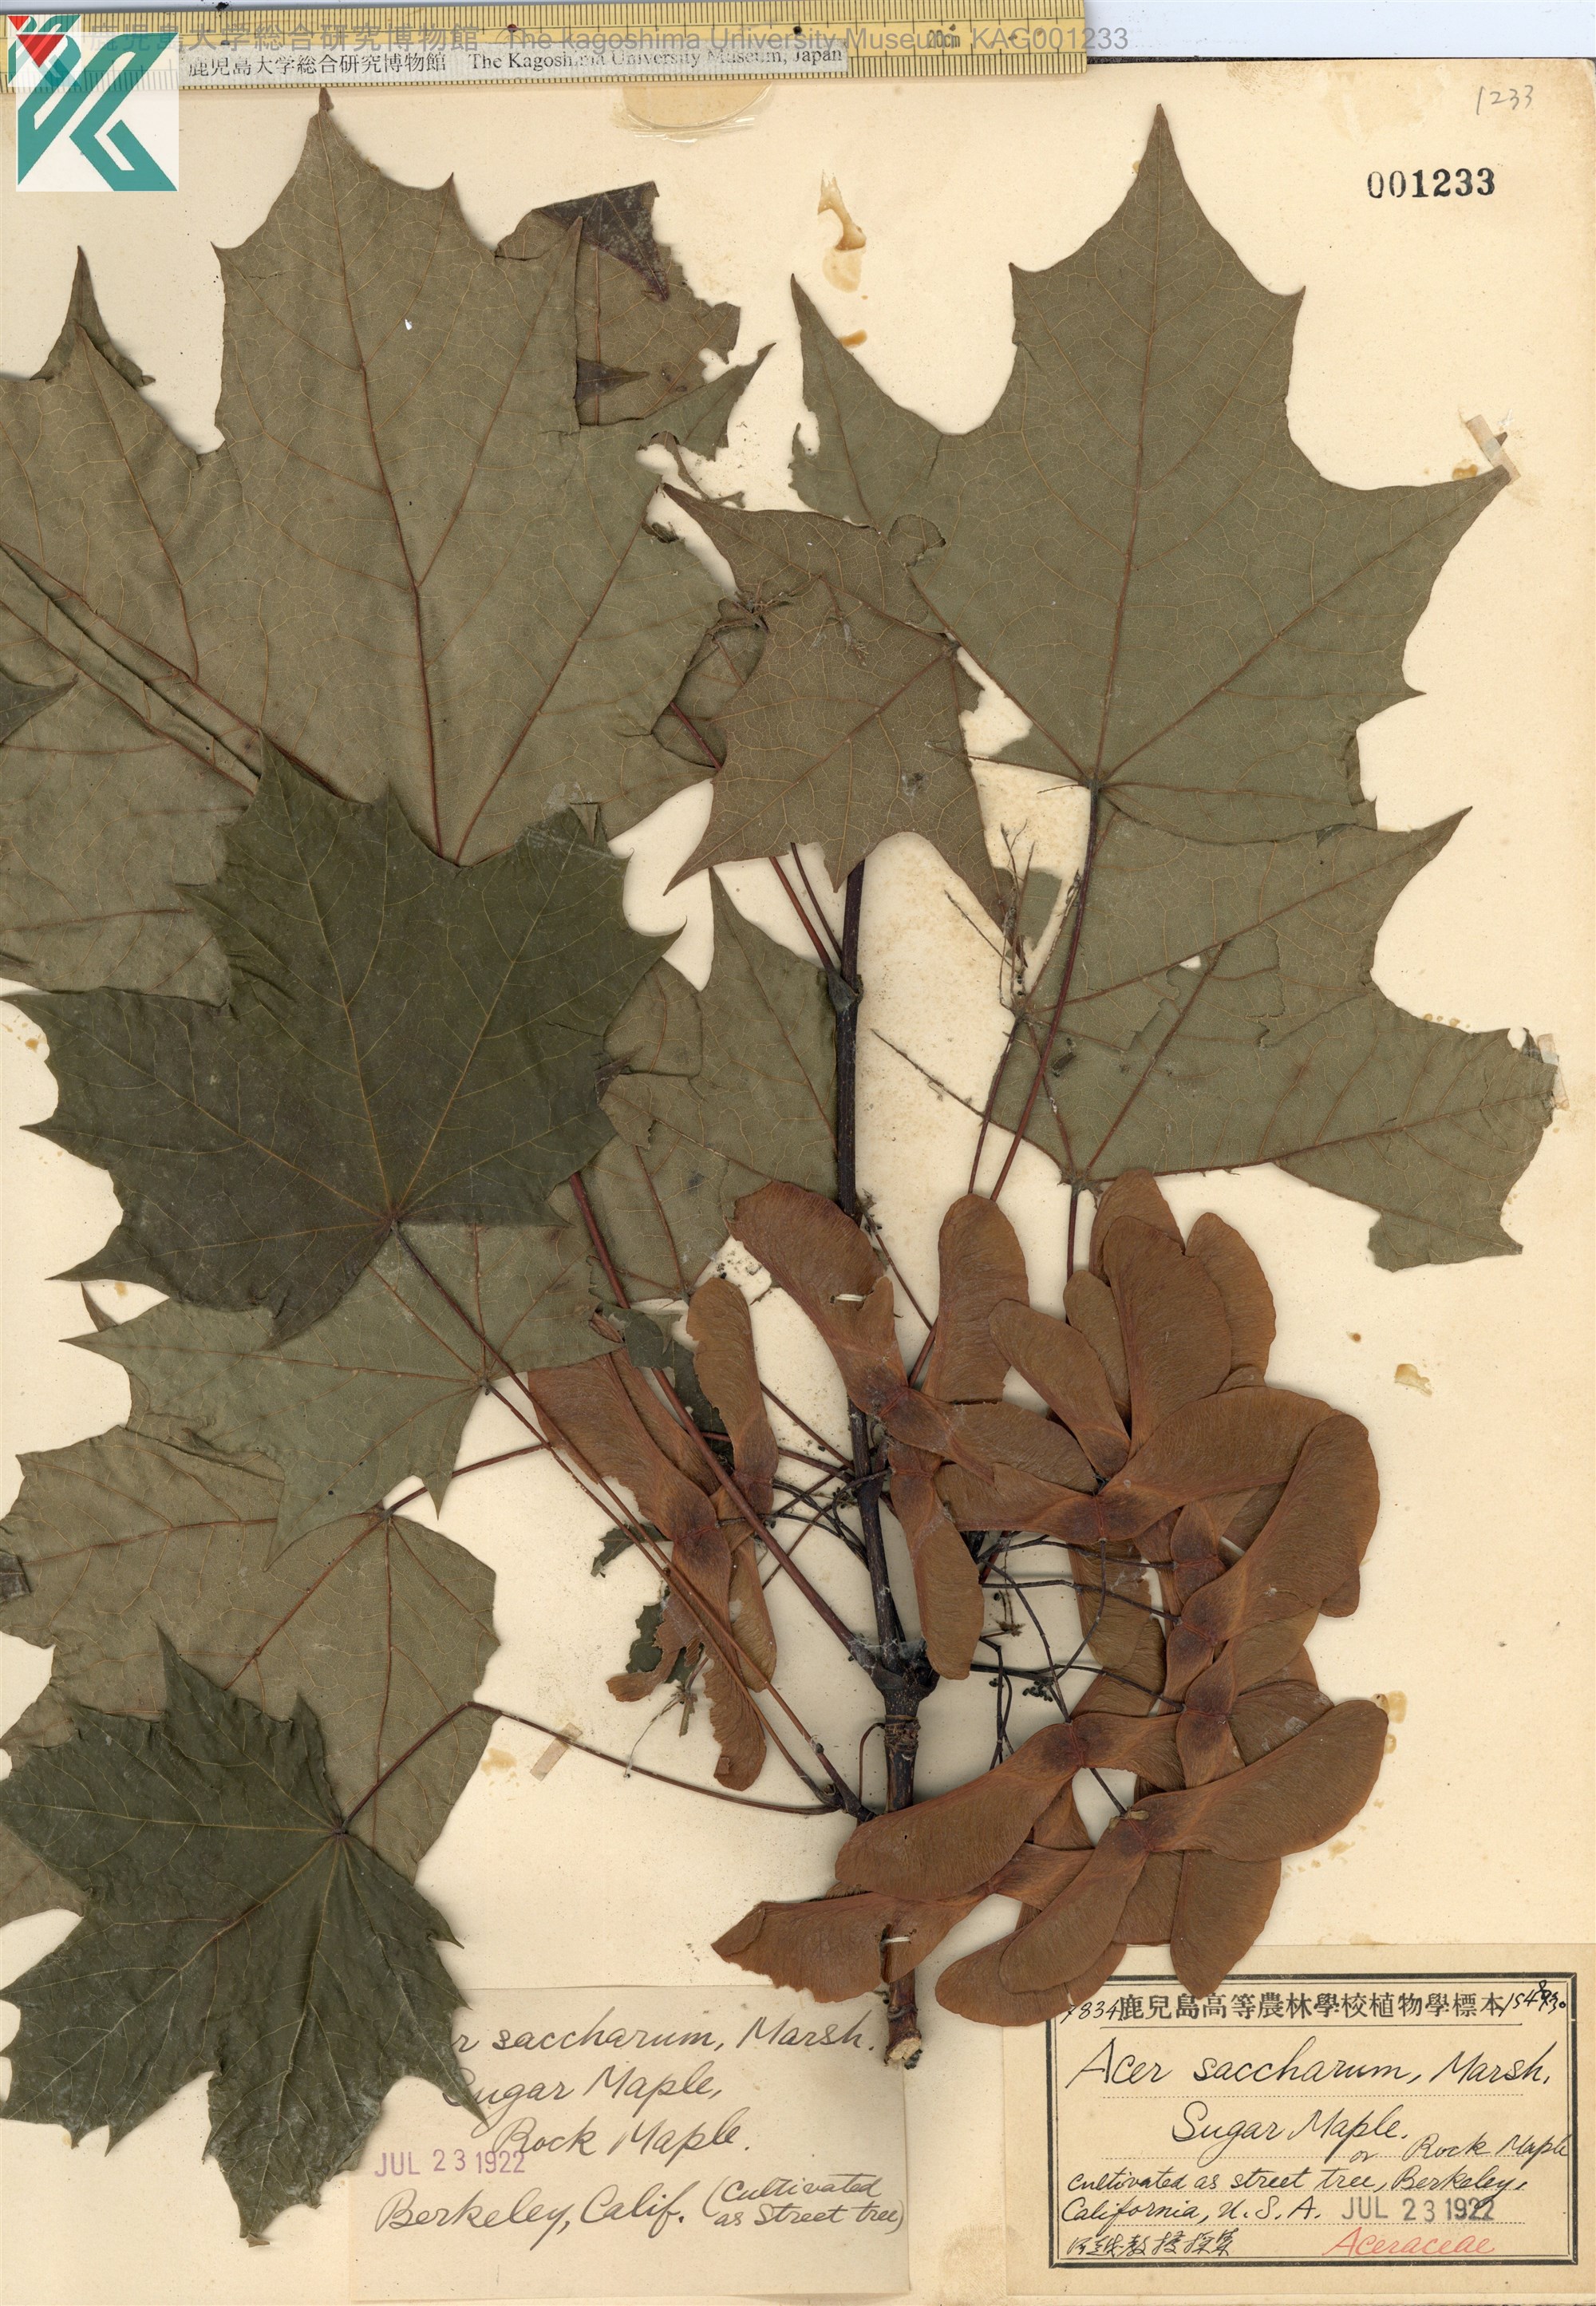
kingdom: Plantae
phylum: Tracheophyta
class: Magnoliopsida
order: Sapindales
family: Sapindaceae
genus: Acer
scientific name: Acer saccharum
